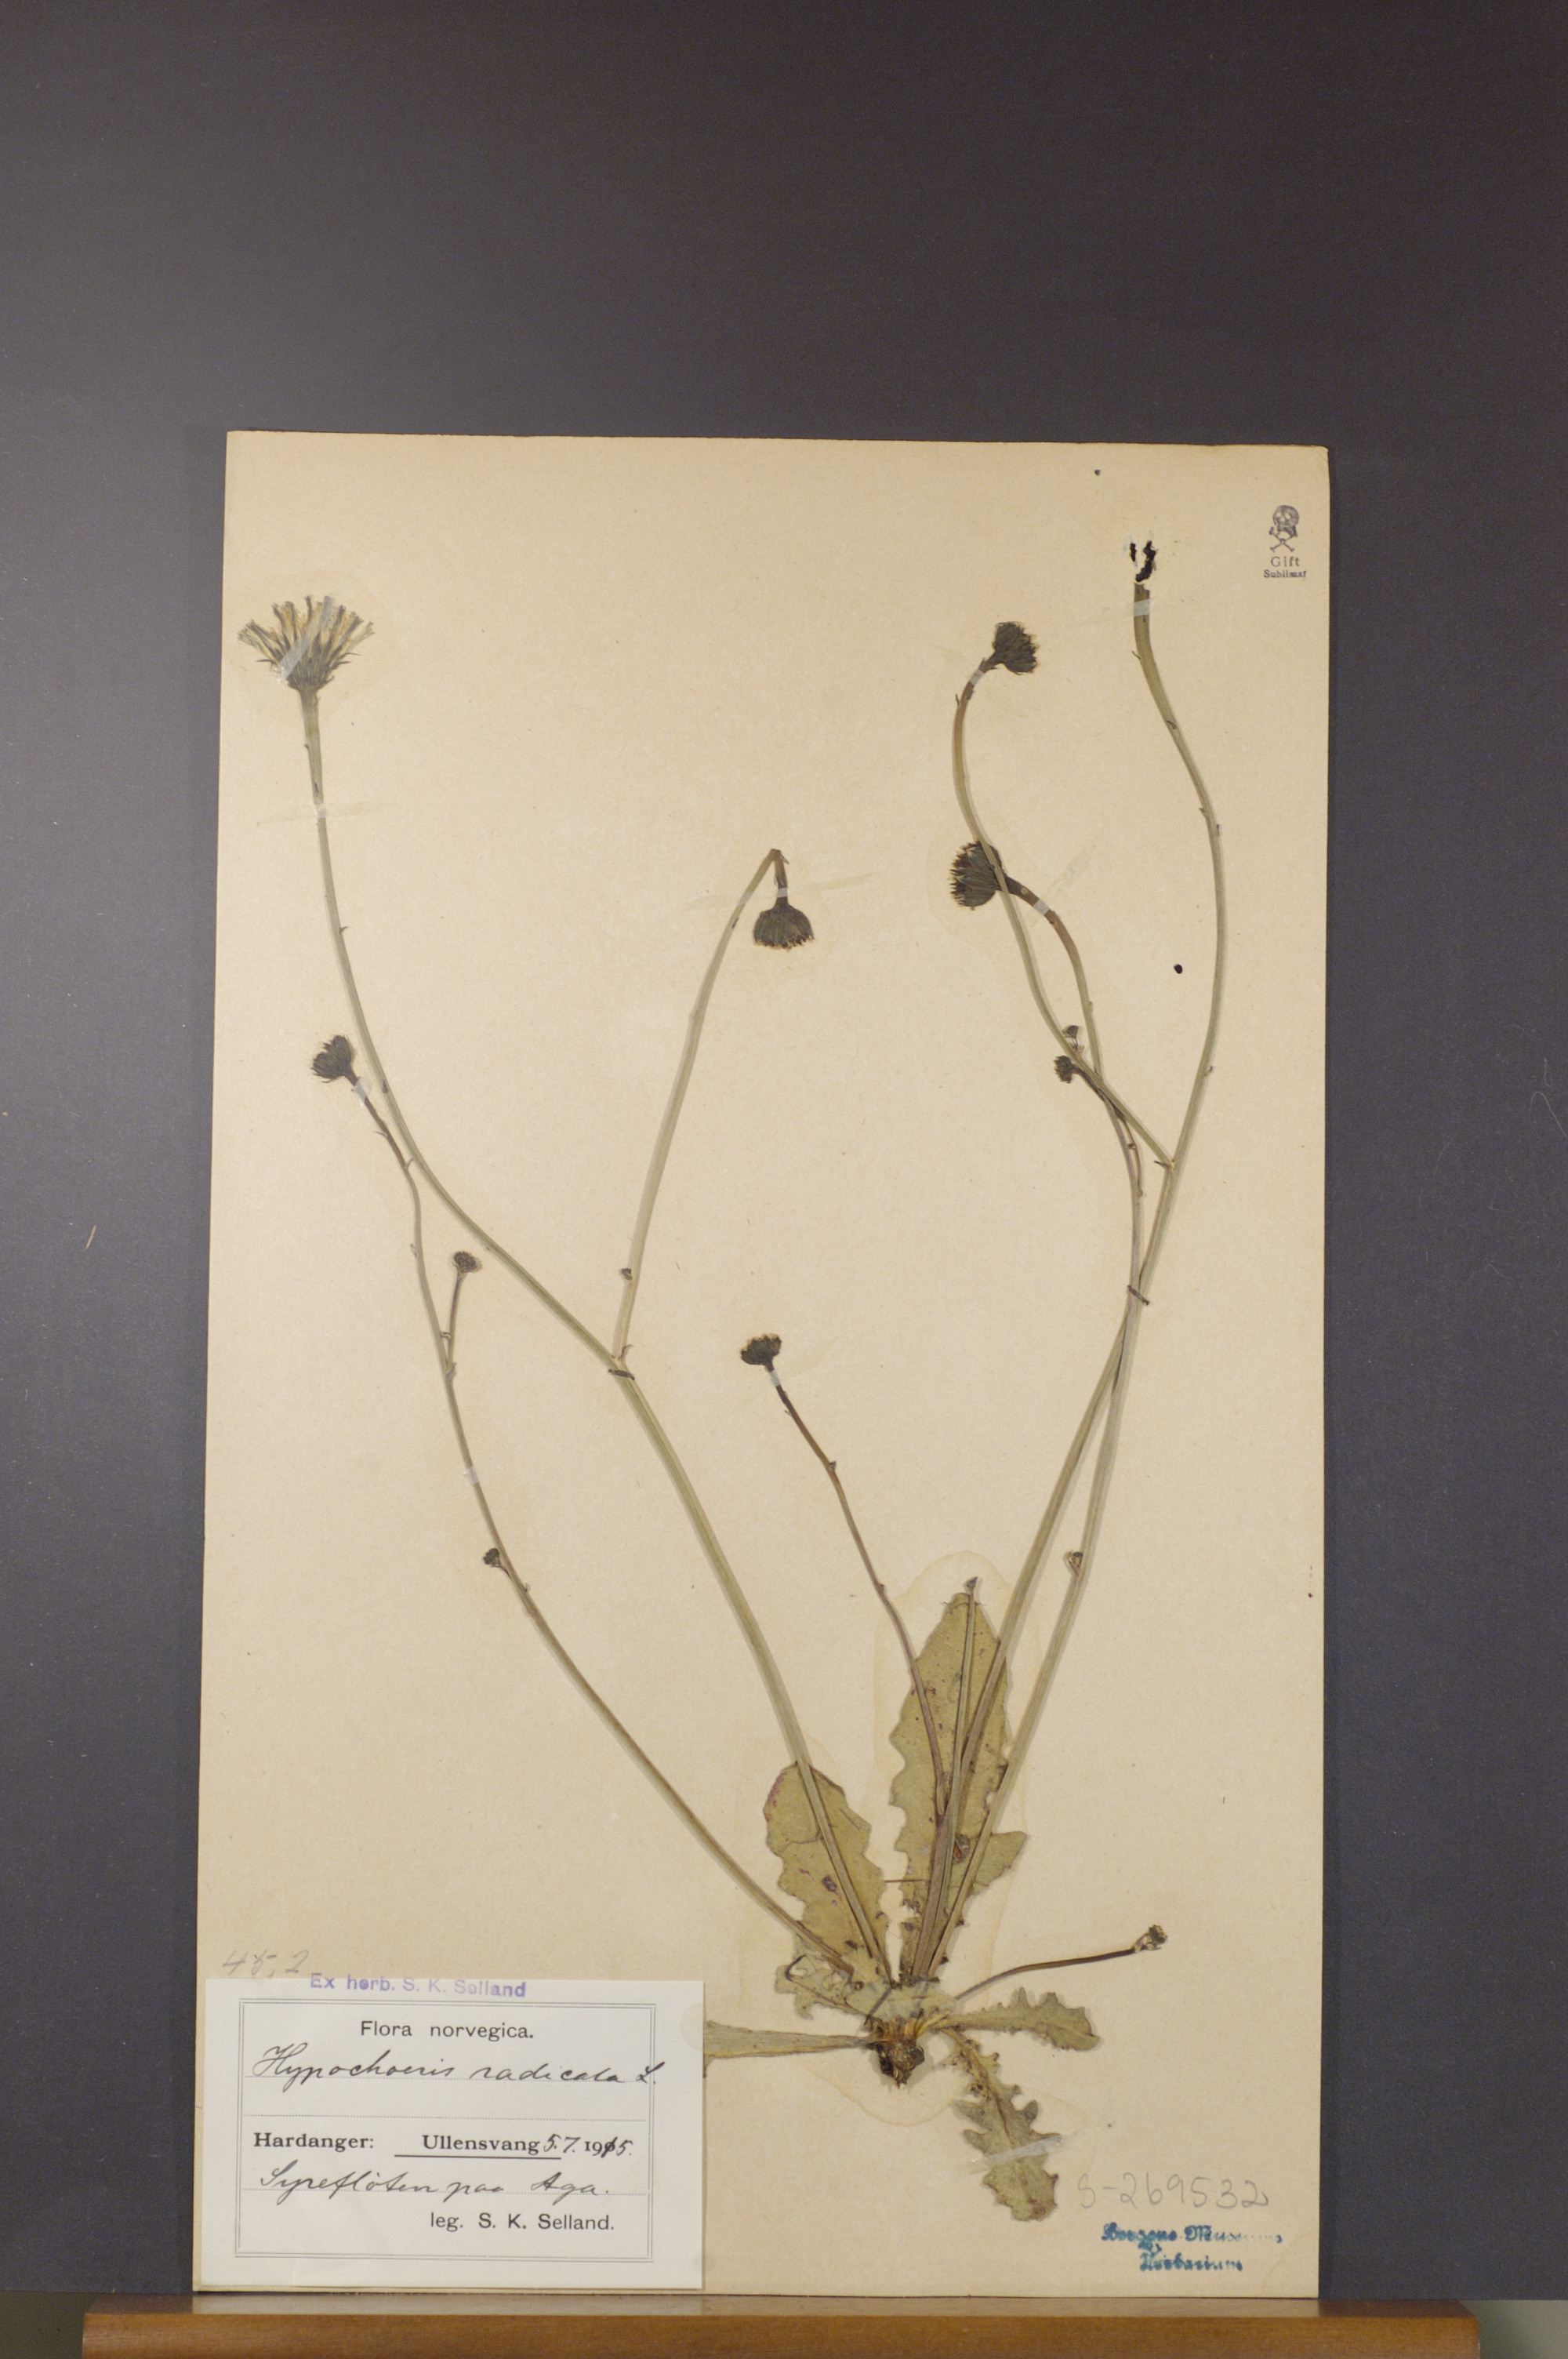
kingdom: Plantae
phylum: Tracheophyta
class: Magnoliopsida
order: Asterales
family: Asteraceae
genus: Hypochaeris
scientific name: Hypochaeris radicata
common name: Flatweed
